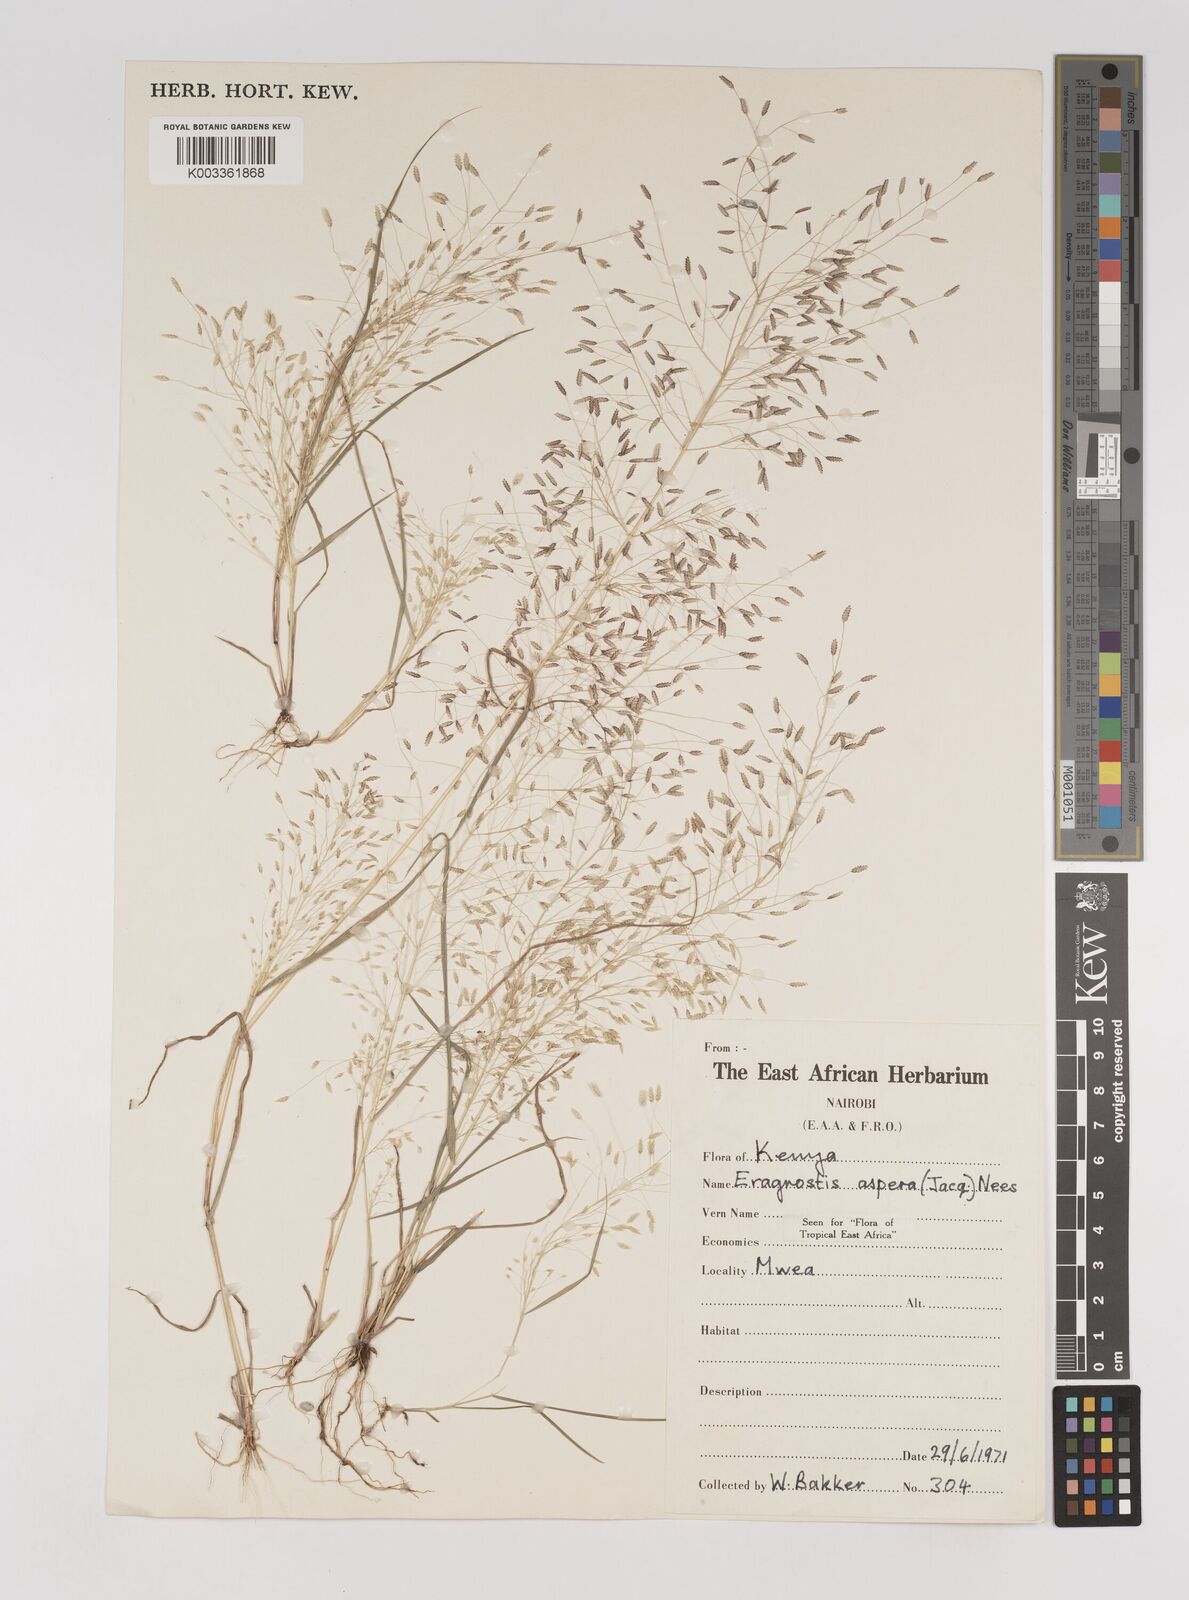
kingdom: Plantae
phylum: Tracheophyta
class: Liliopsida
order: Poales
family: Poaceae
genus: Eragrostis
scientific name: Eragrostis aspera
